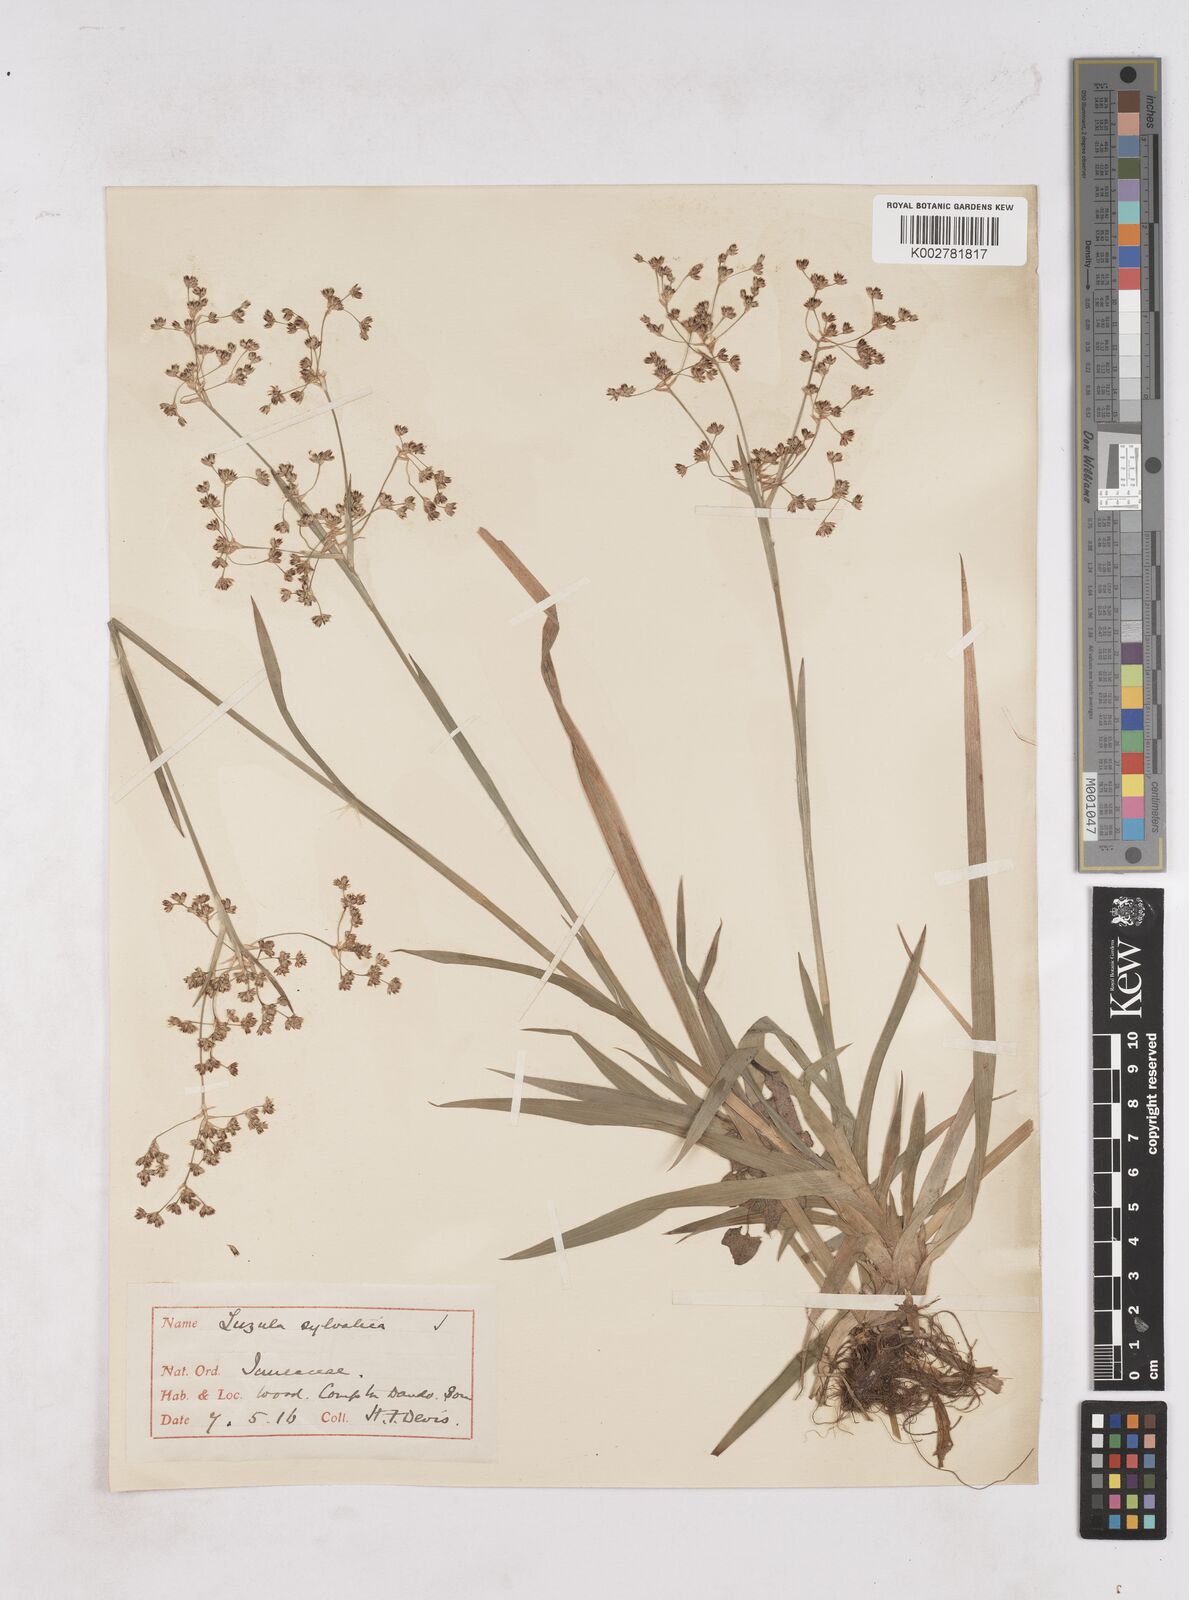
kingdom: Plantae
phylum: Tracheophyta
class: Liliopsida
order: Poales
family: Juncaceae
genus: Luzula
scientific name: Luzula sylvatica
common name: Great wood-rush
